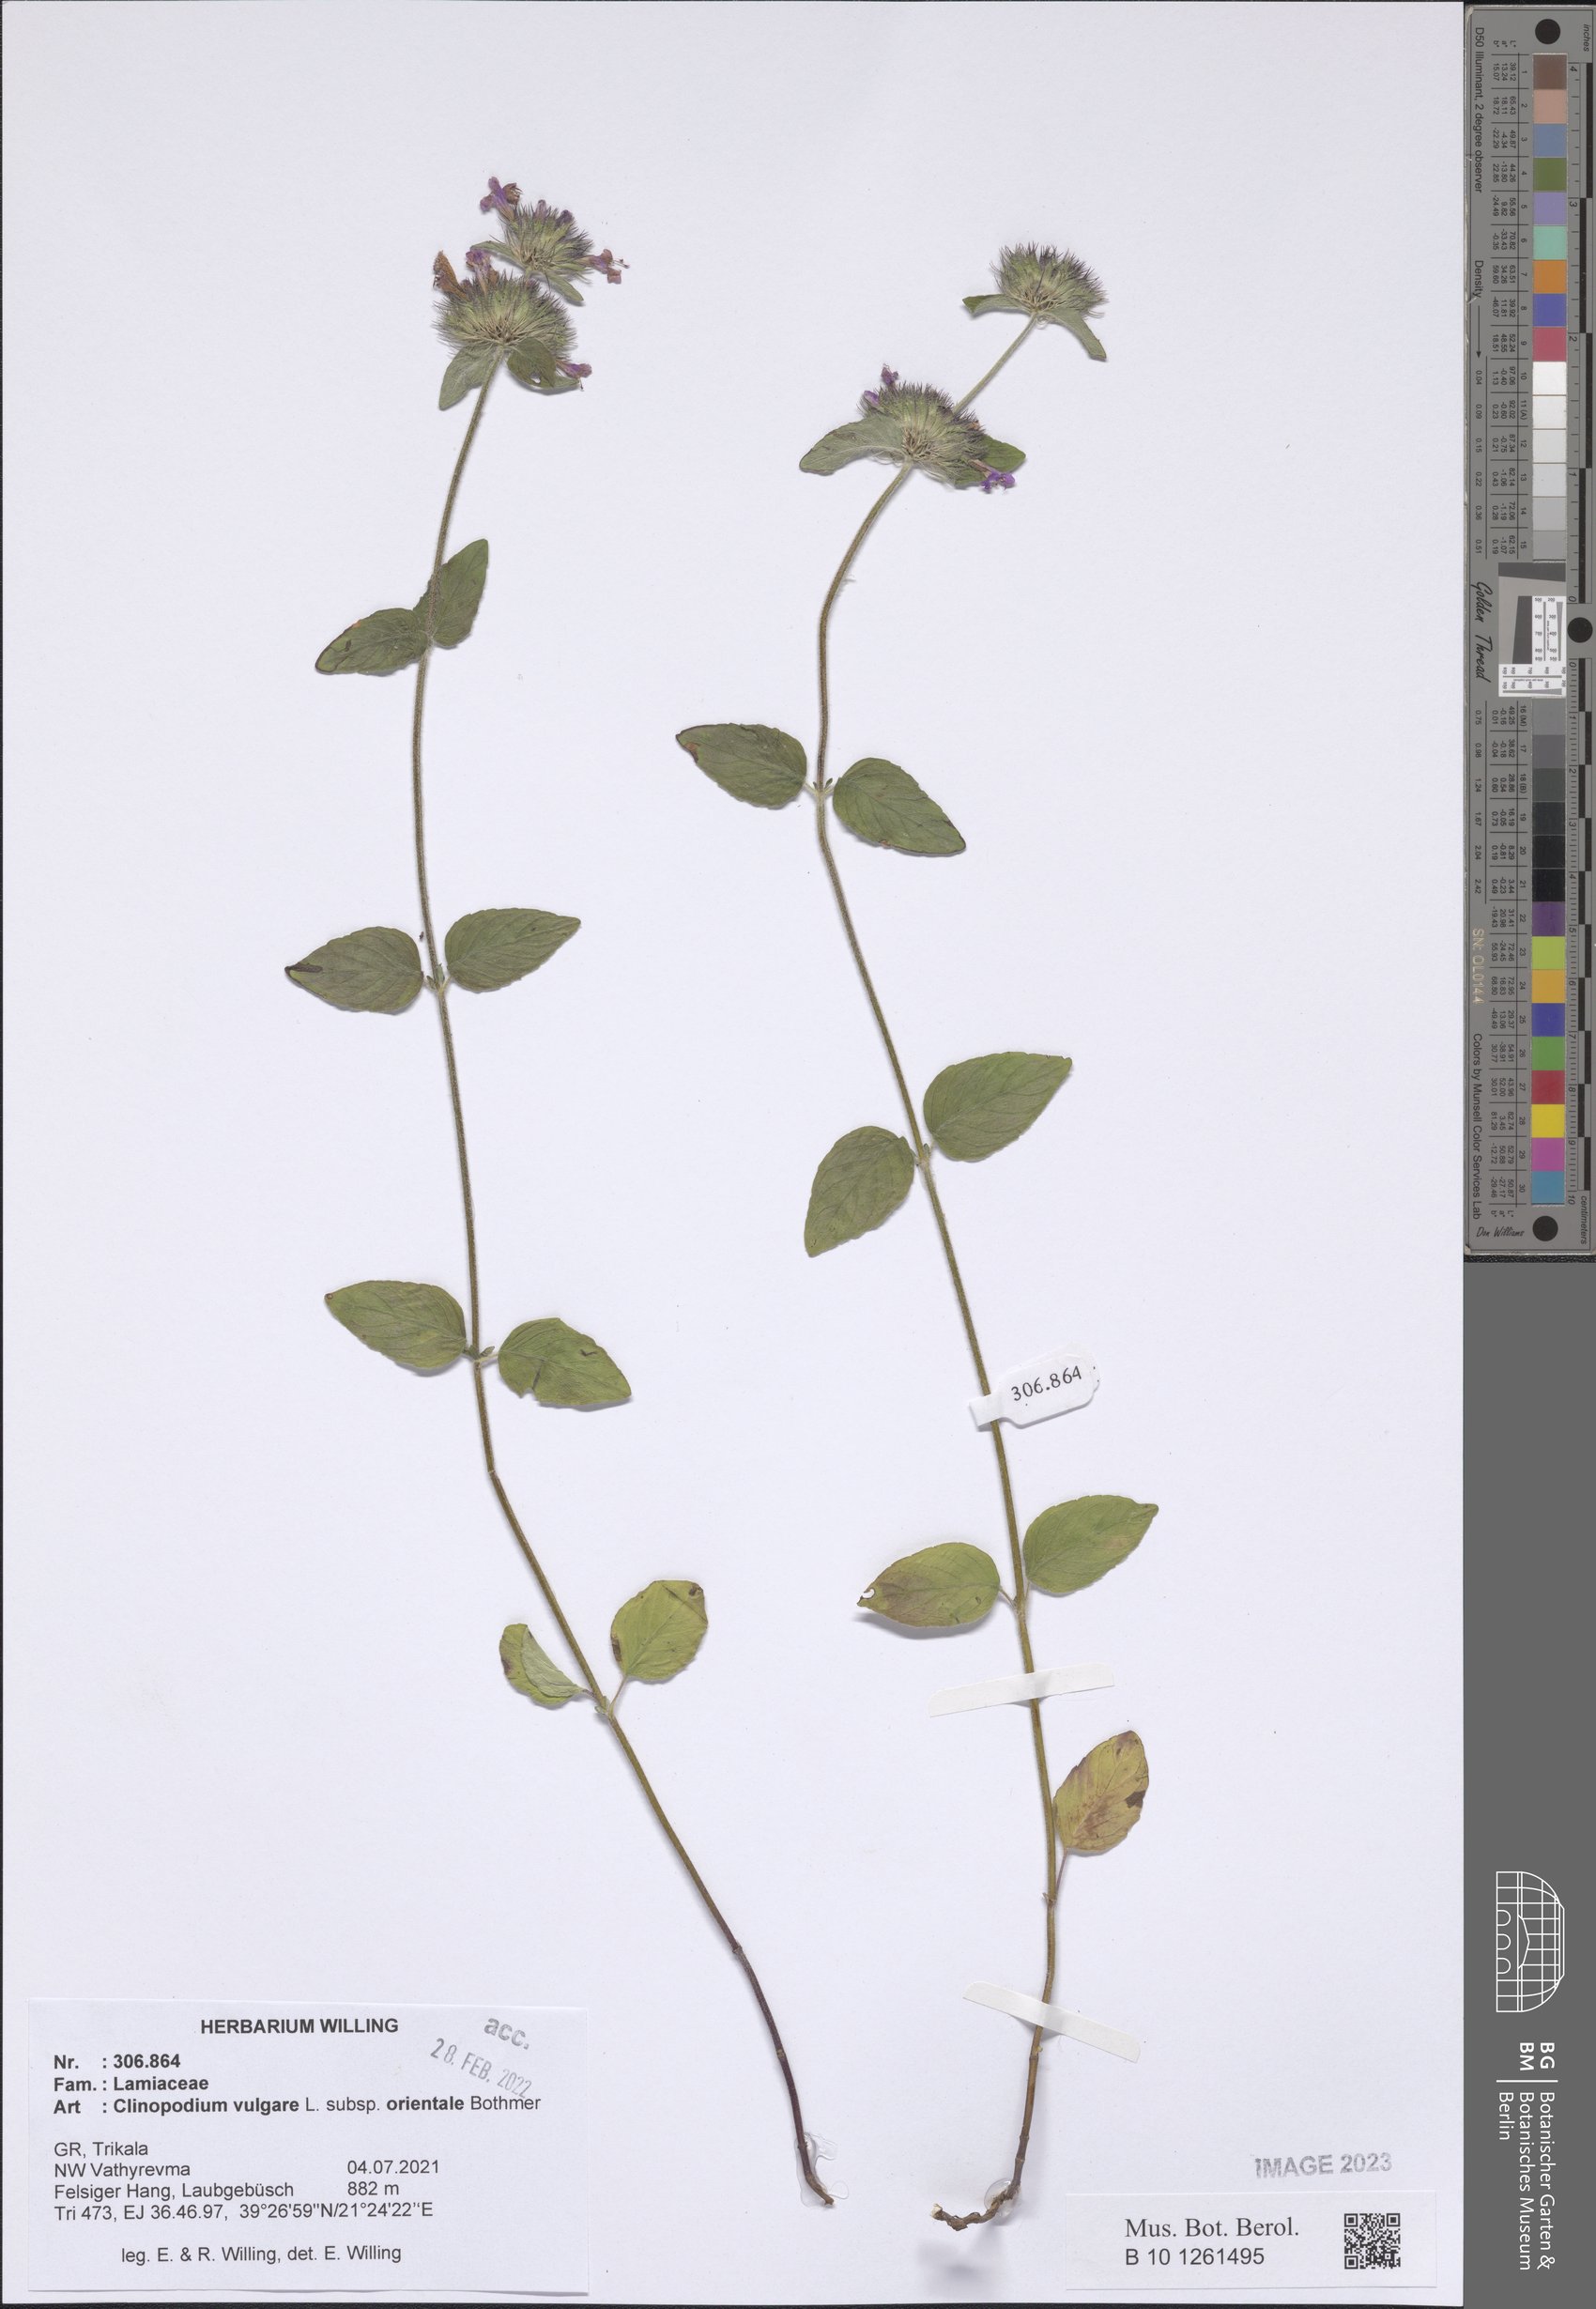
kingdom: Plantae
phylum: Tracheophyta
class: Magnoliopsida
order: Lamiales
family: Lamiaceae
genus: Clinopodium
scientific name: Clinopodium vulgare
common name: Wild basil
